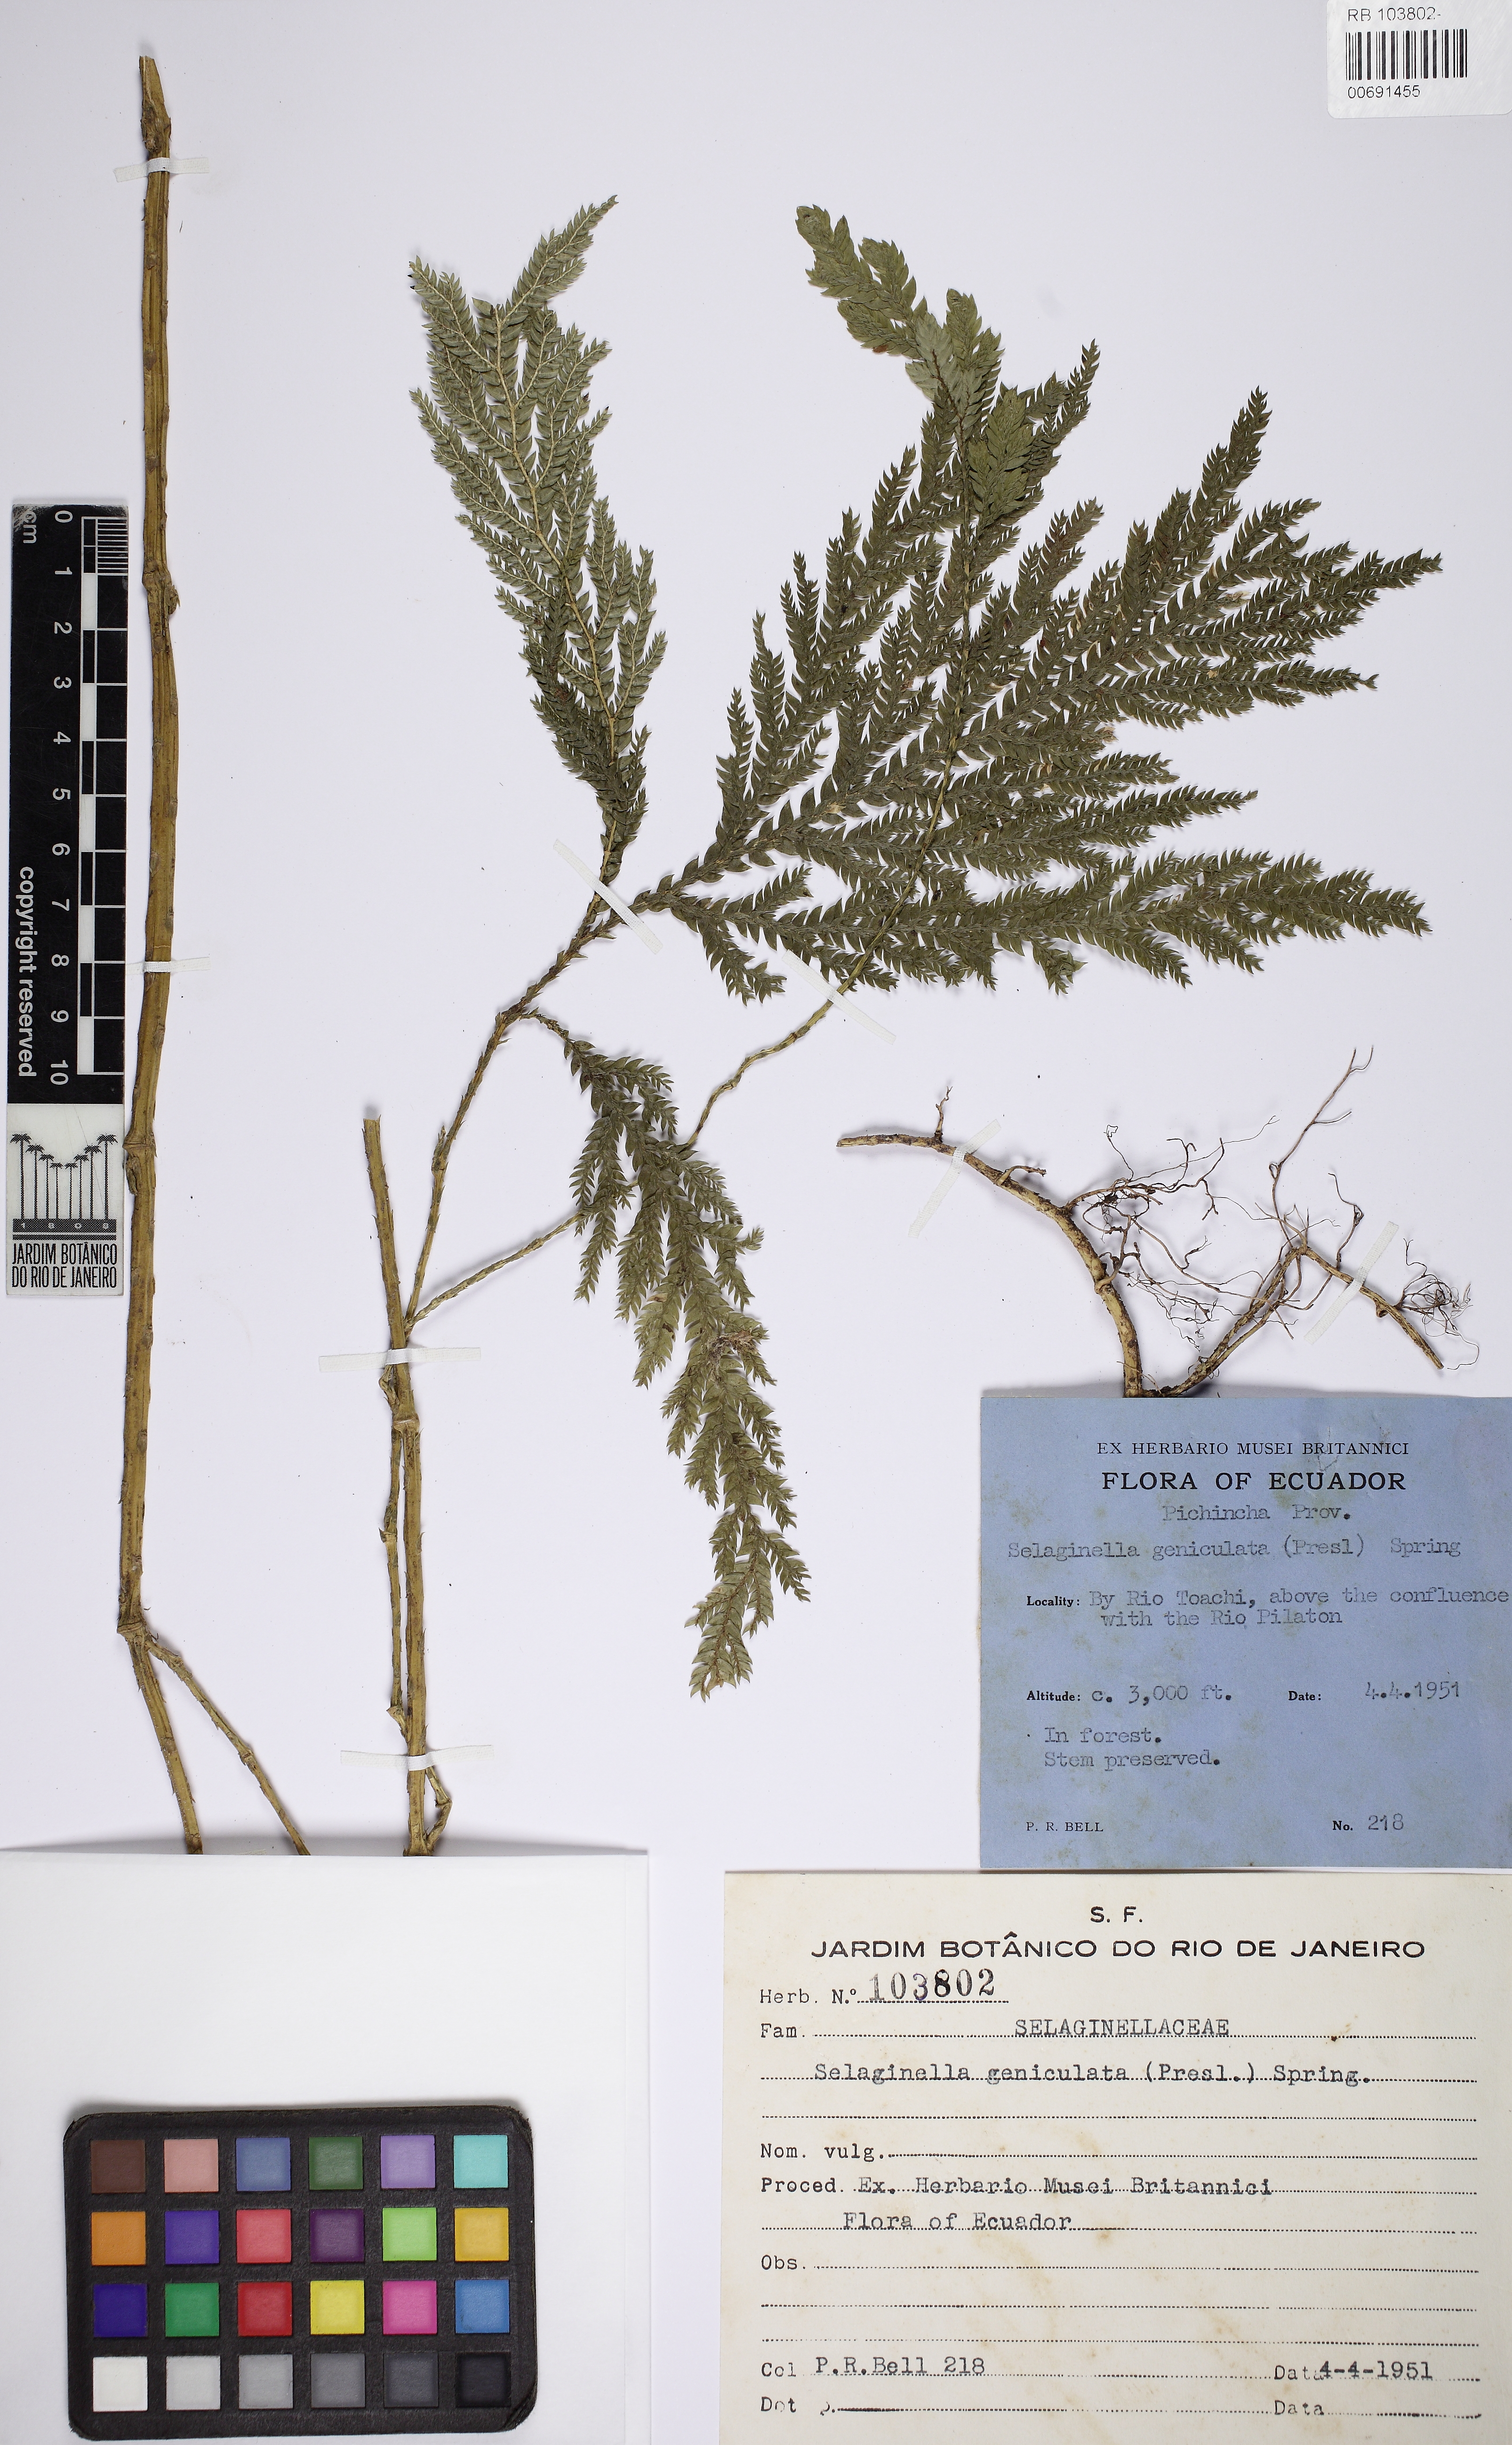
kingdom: Plantae
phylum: Tracheophyta
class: Lycopodiopsida
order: Selaginellales
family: Selaginellaceae
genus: Selaginella
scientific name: Selaginella geniculata
